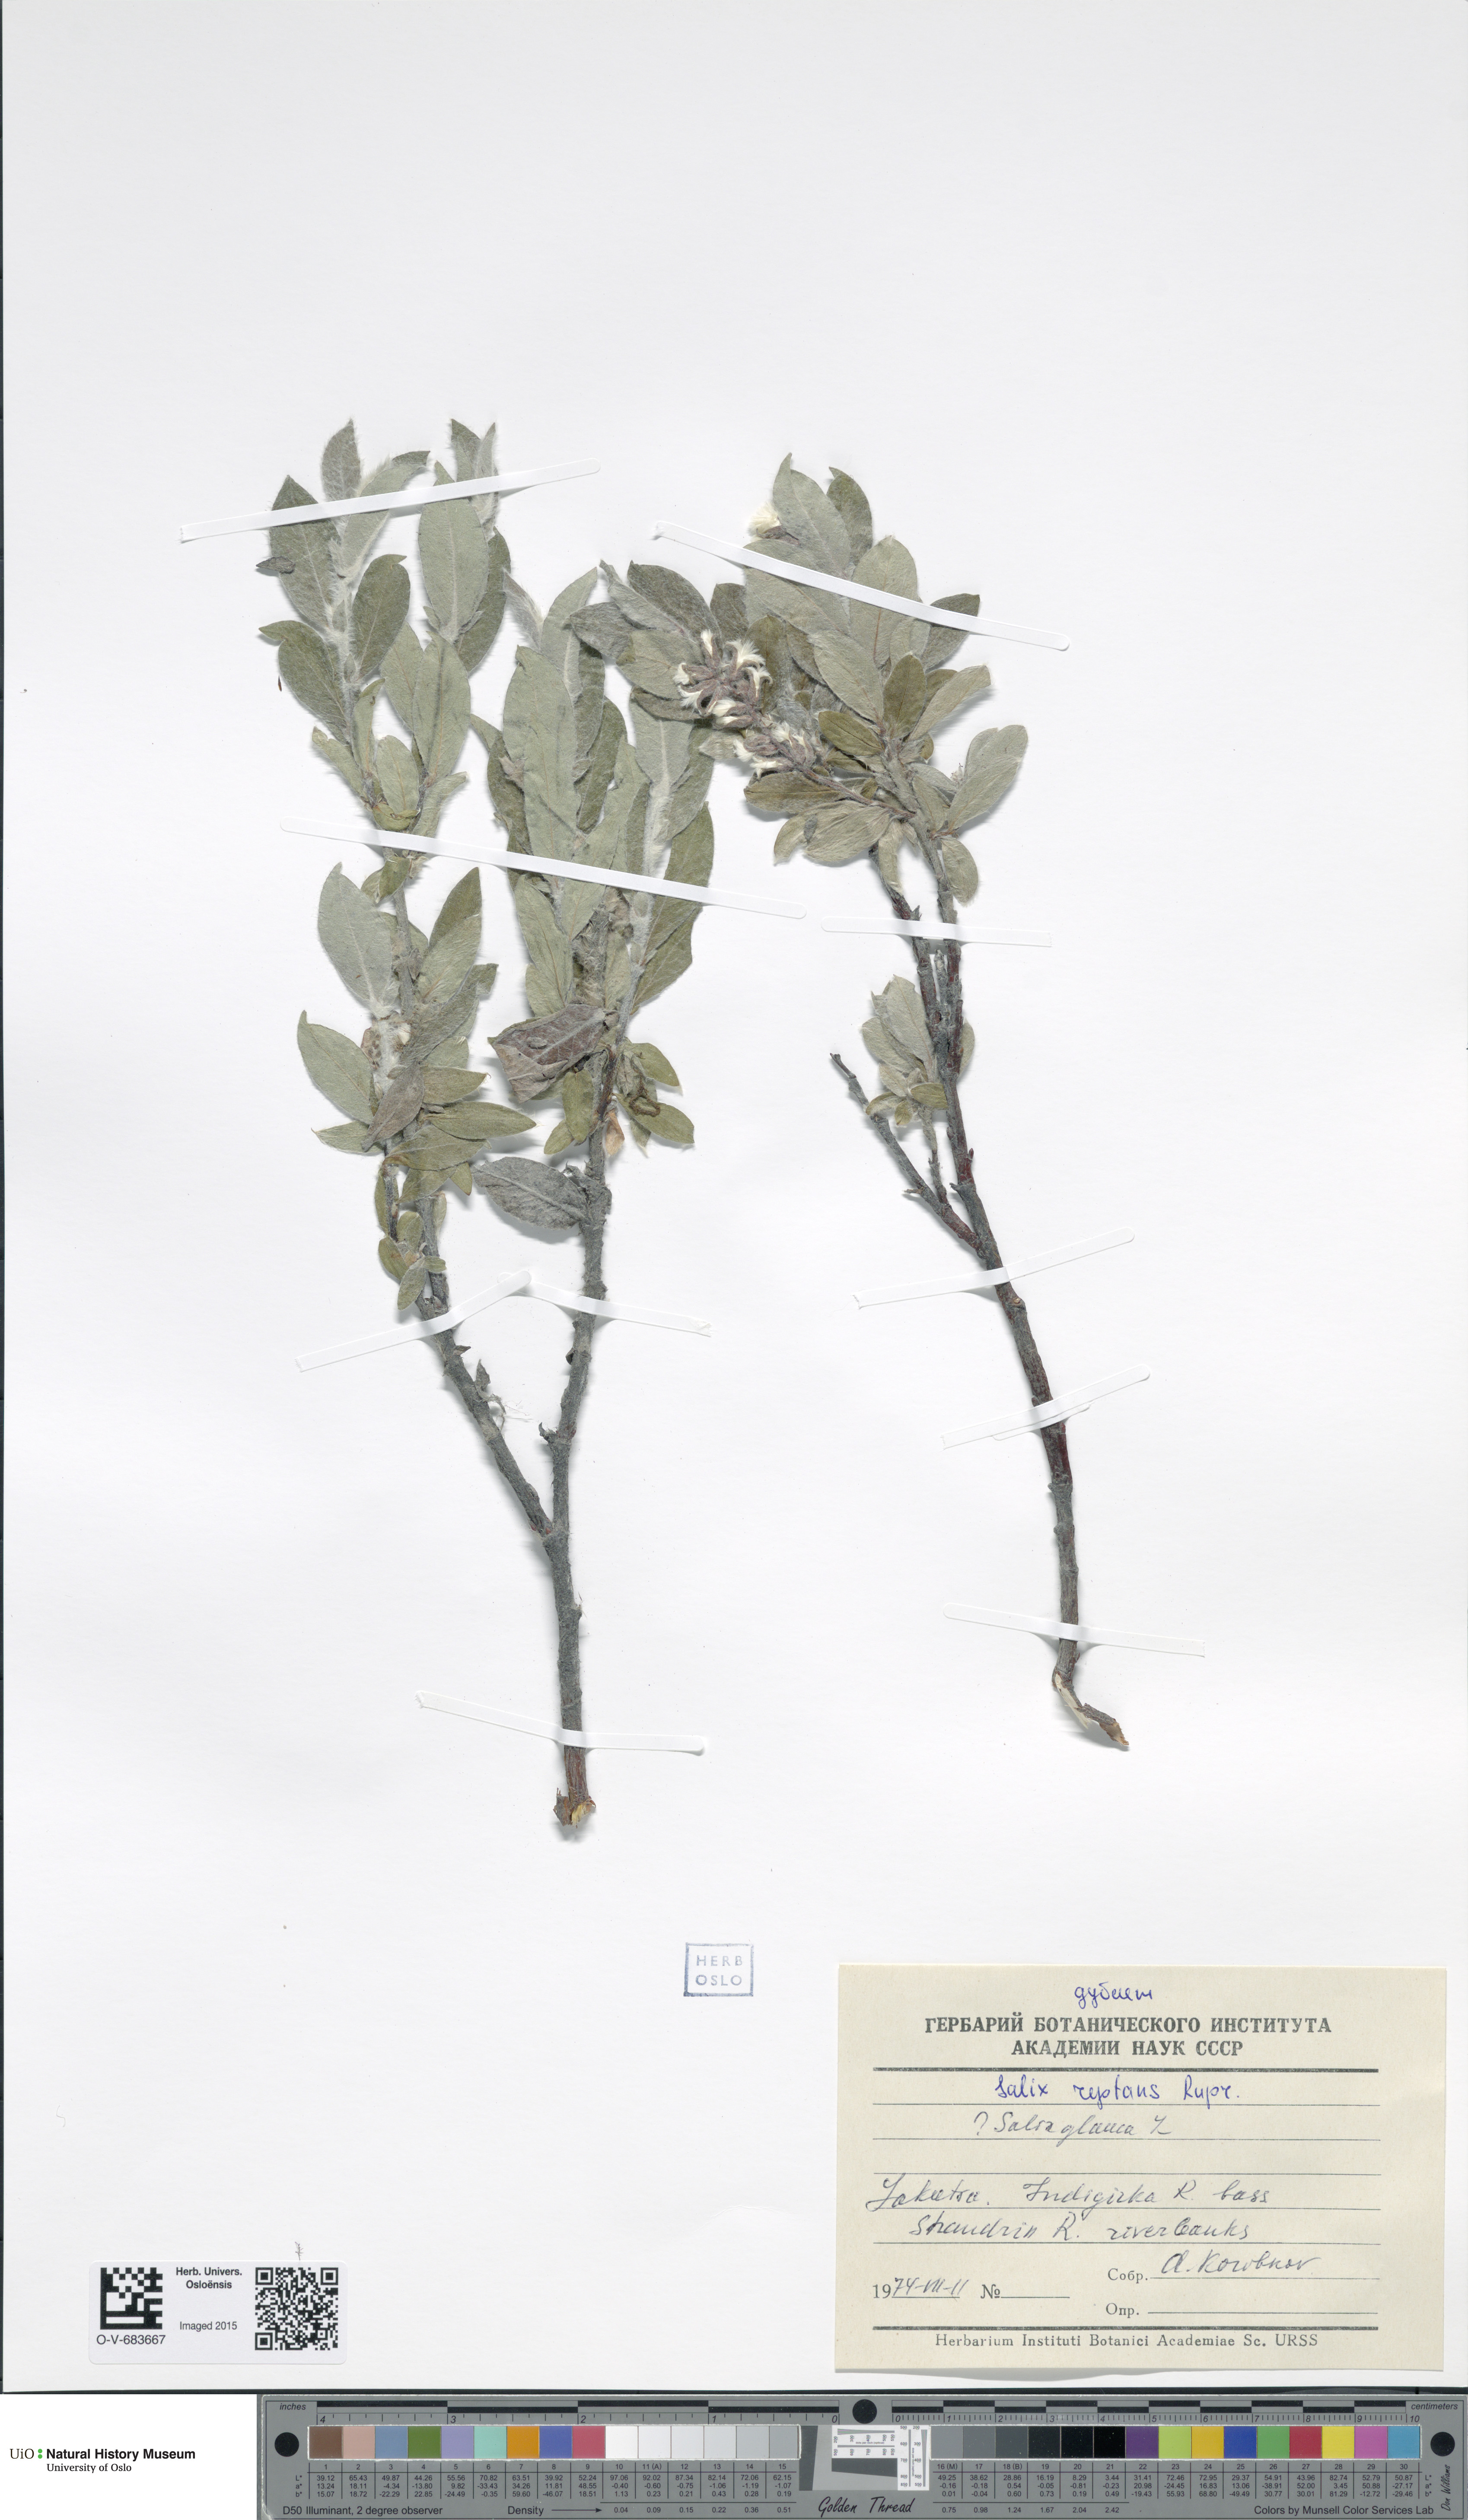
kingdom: Plantae
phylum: Tracheophyta
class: Magnoliopsida
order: Malpighiales
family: Salicaceae
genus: Salix
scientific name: Salix reptans
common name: Arctic creeping willow
